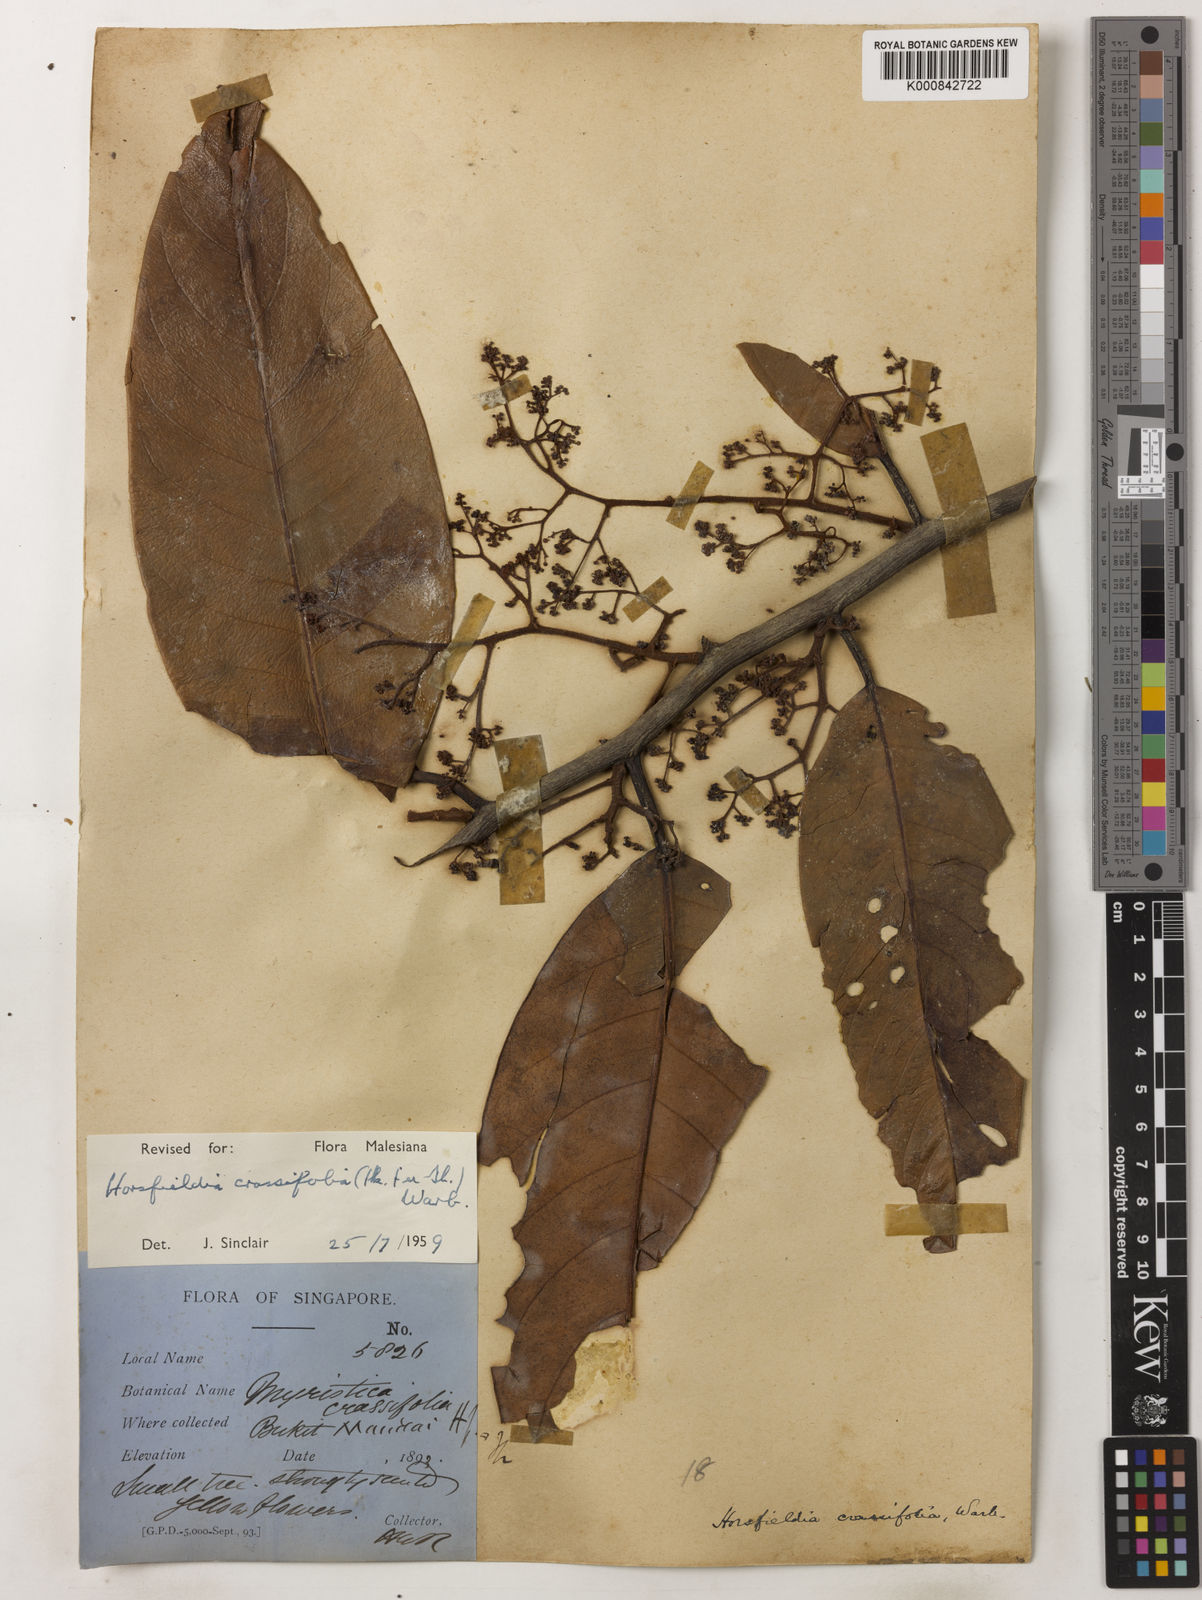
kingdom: Plantae
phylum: Tracheophyta
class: Magnoliopsida
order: Magnoliales
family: Myristicaceae
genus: Horsfieldia
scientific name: Horsfieldia crassifolia
